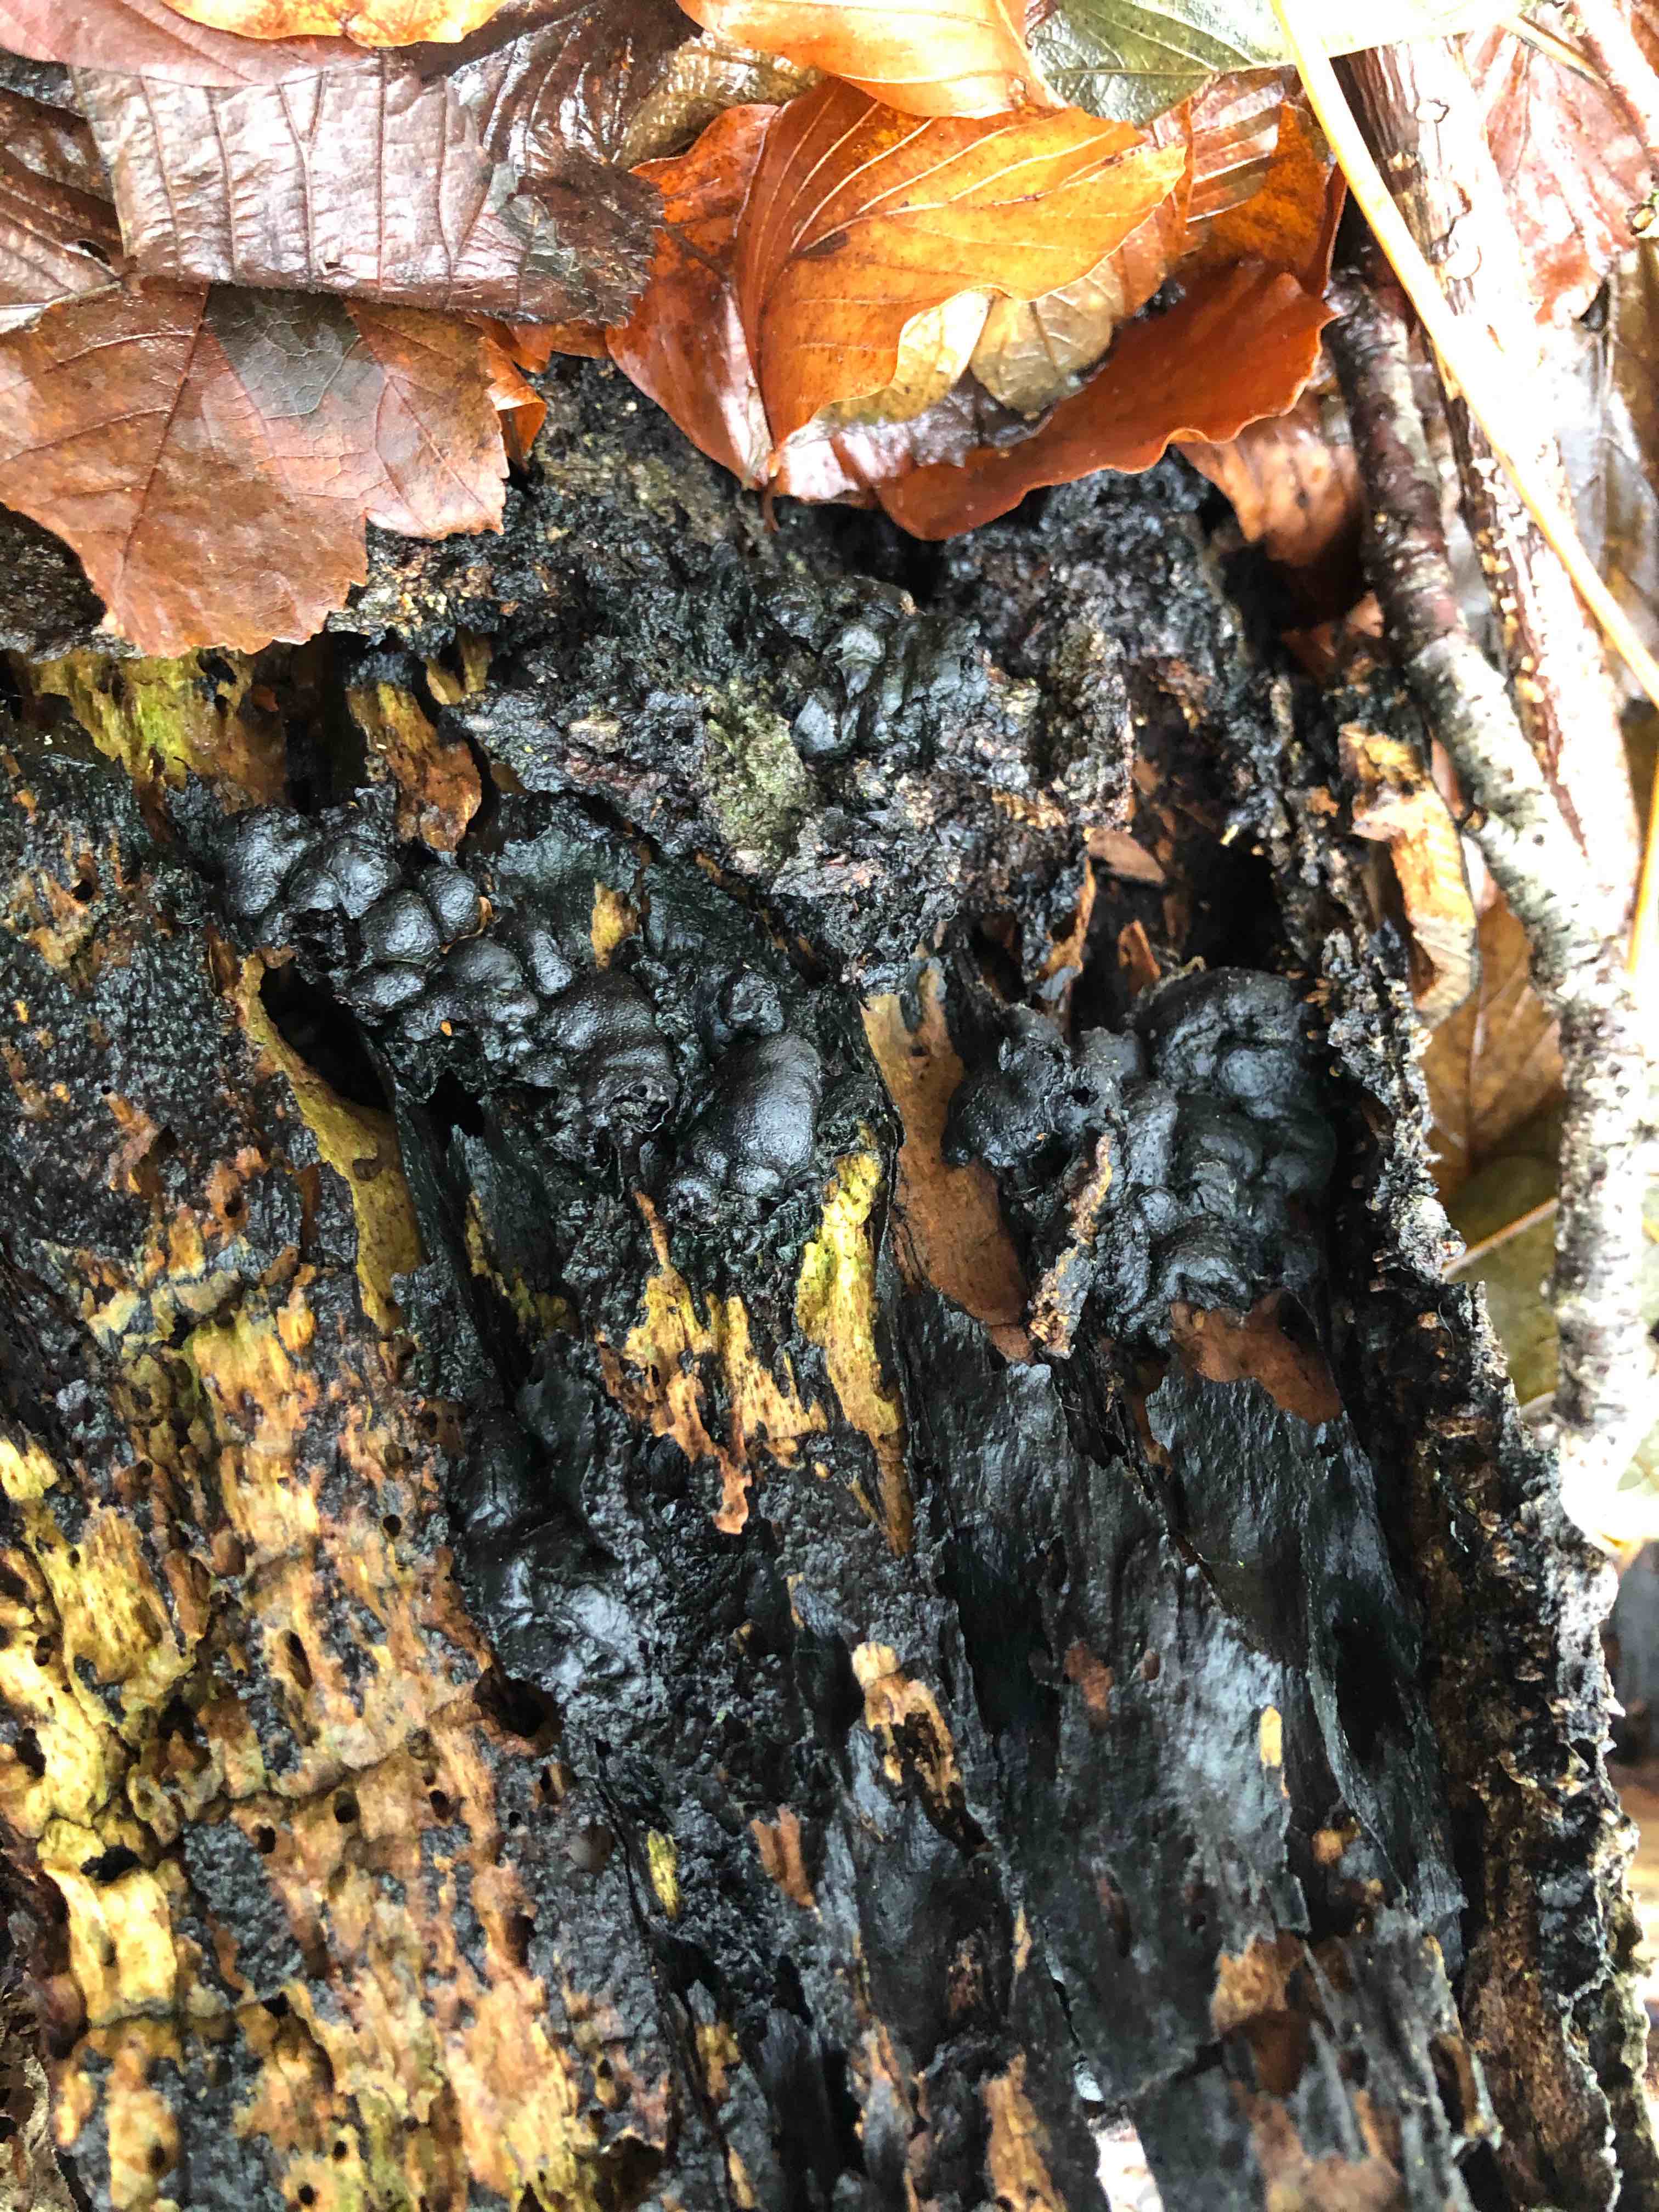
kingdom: Fungi
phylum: Ascomycota
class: Sordariomycetes
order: Xylariales
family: Xylariaceae
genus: Kretzschmaria
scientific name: Kretzschmaria deusta
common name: stor kulsvamp
